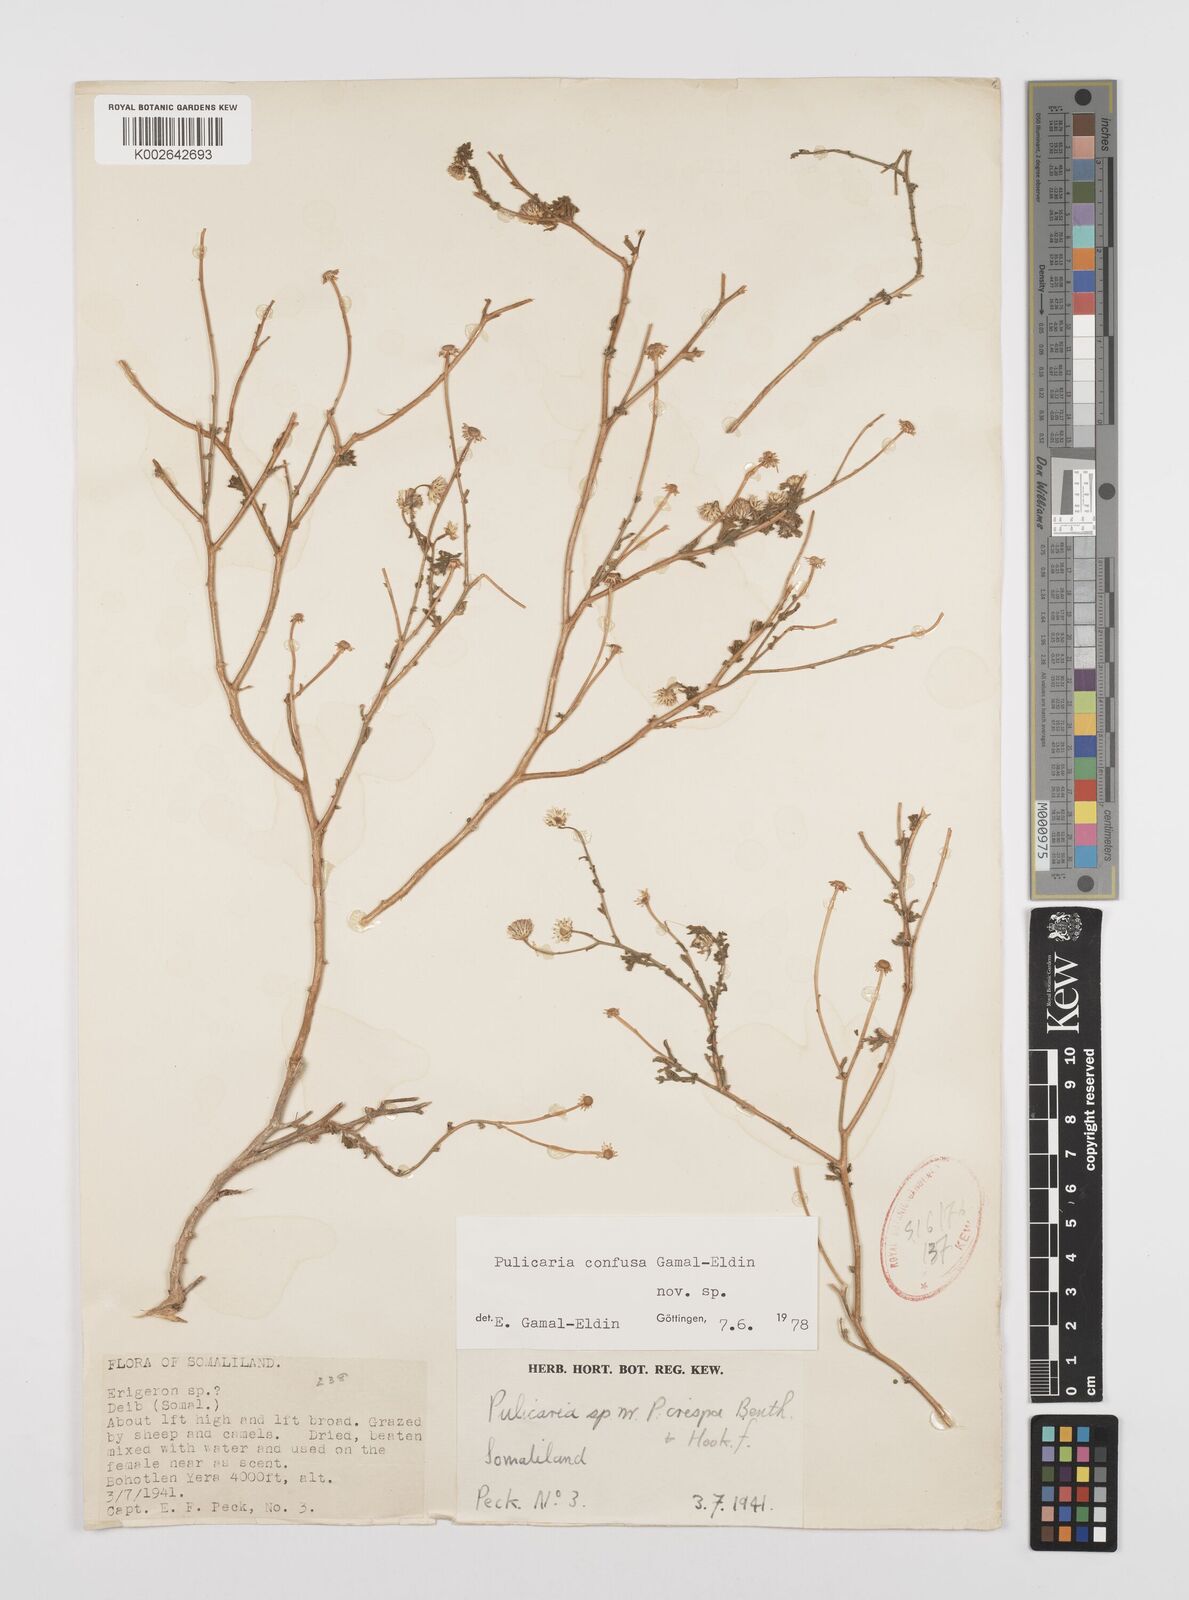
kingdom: Plantae
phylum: Tracheophyta
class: Magnoliopsida
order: Asterales
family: Asteraceae
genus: Pulicaria
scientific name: Pulicaria confusa
